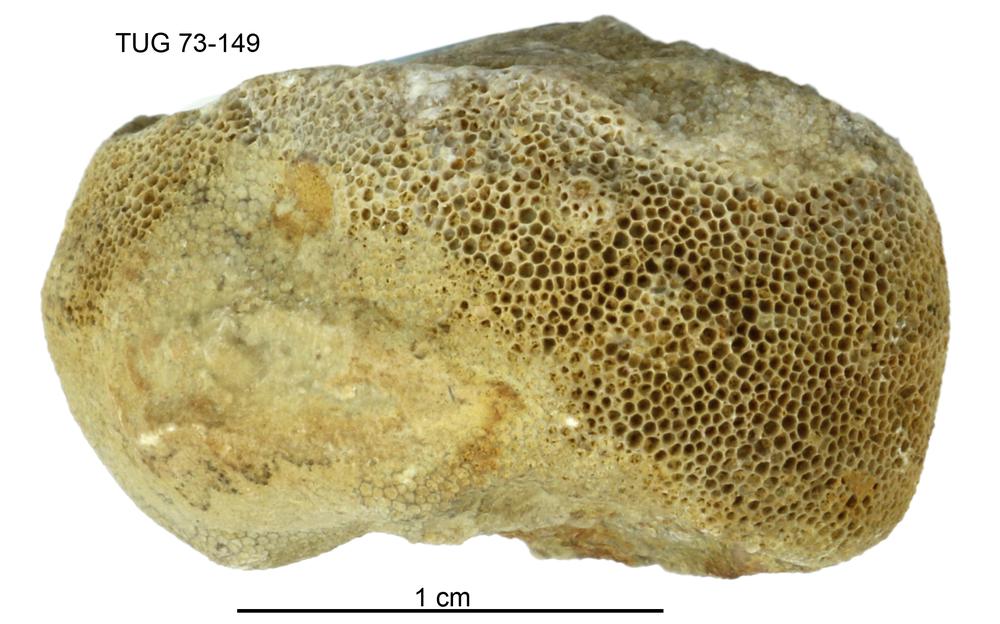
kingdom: Animalia
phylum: Bryozoa
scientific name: Bryozoa
